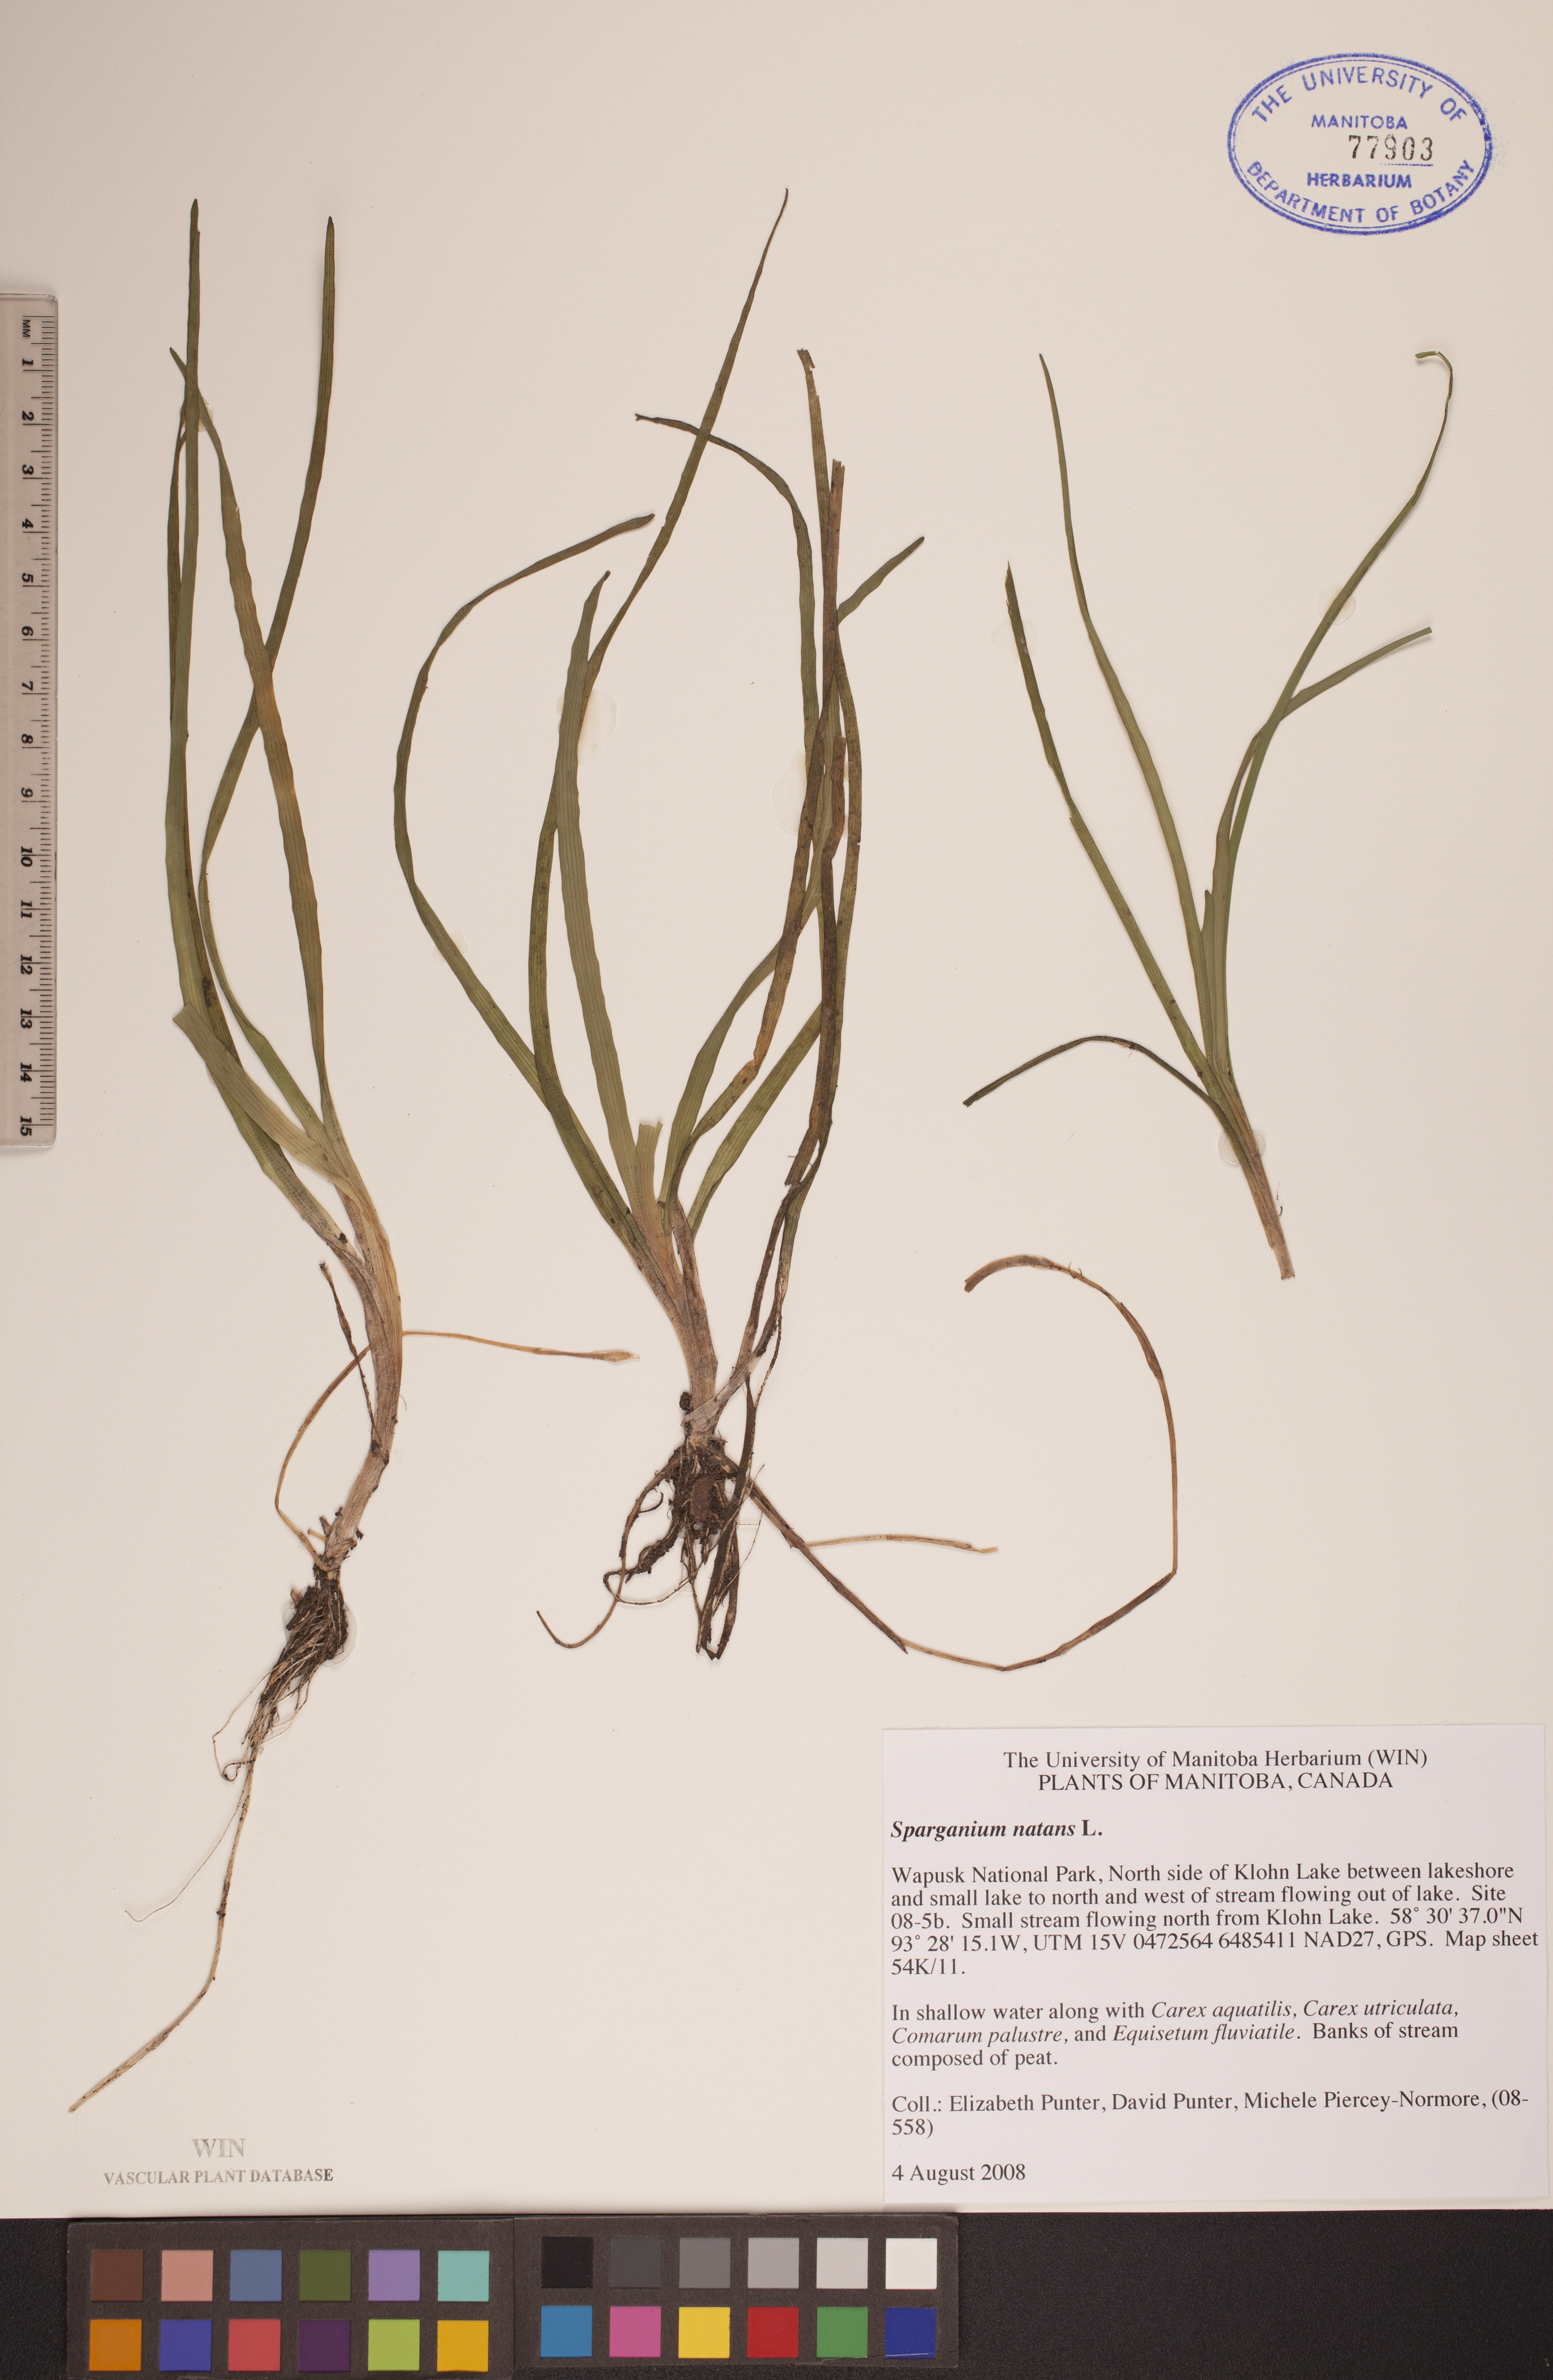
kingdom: Plantae
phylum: Tracheophyta
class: Liliopsida
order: Poales
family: Typhaceae
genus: Sparganium
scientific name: Sparganium natans
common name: Least bur-reed
